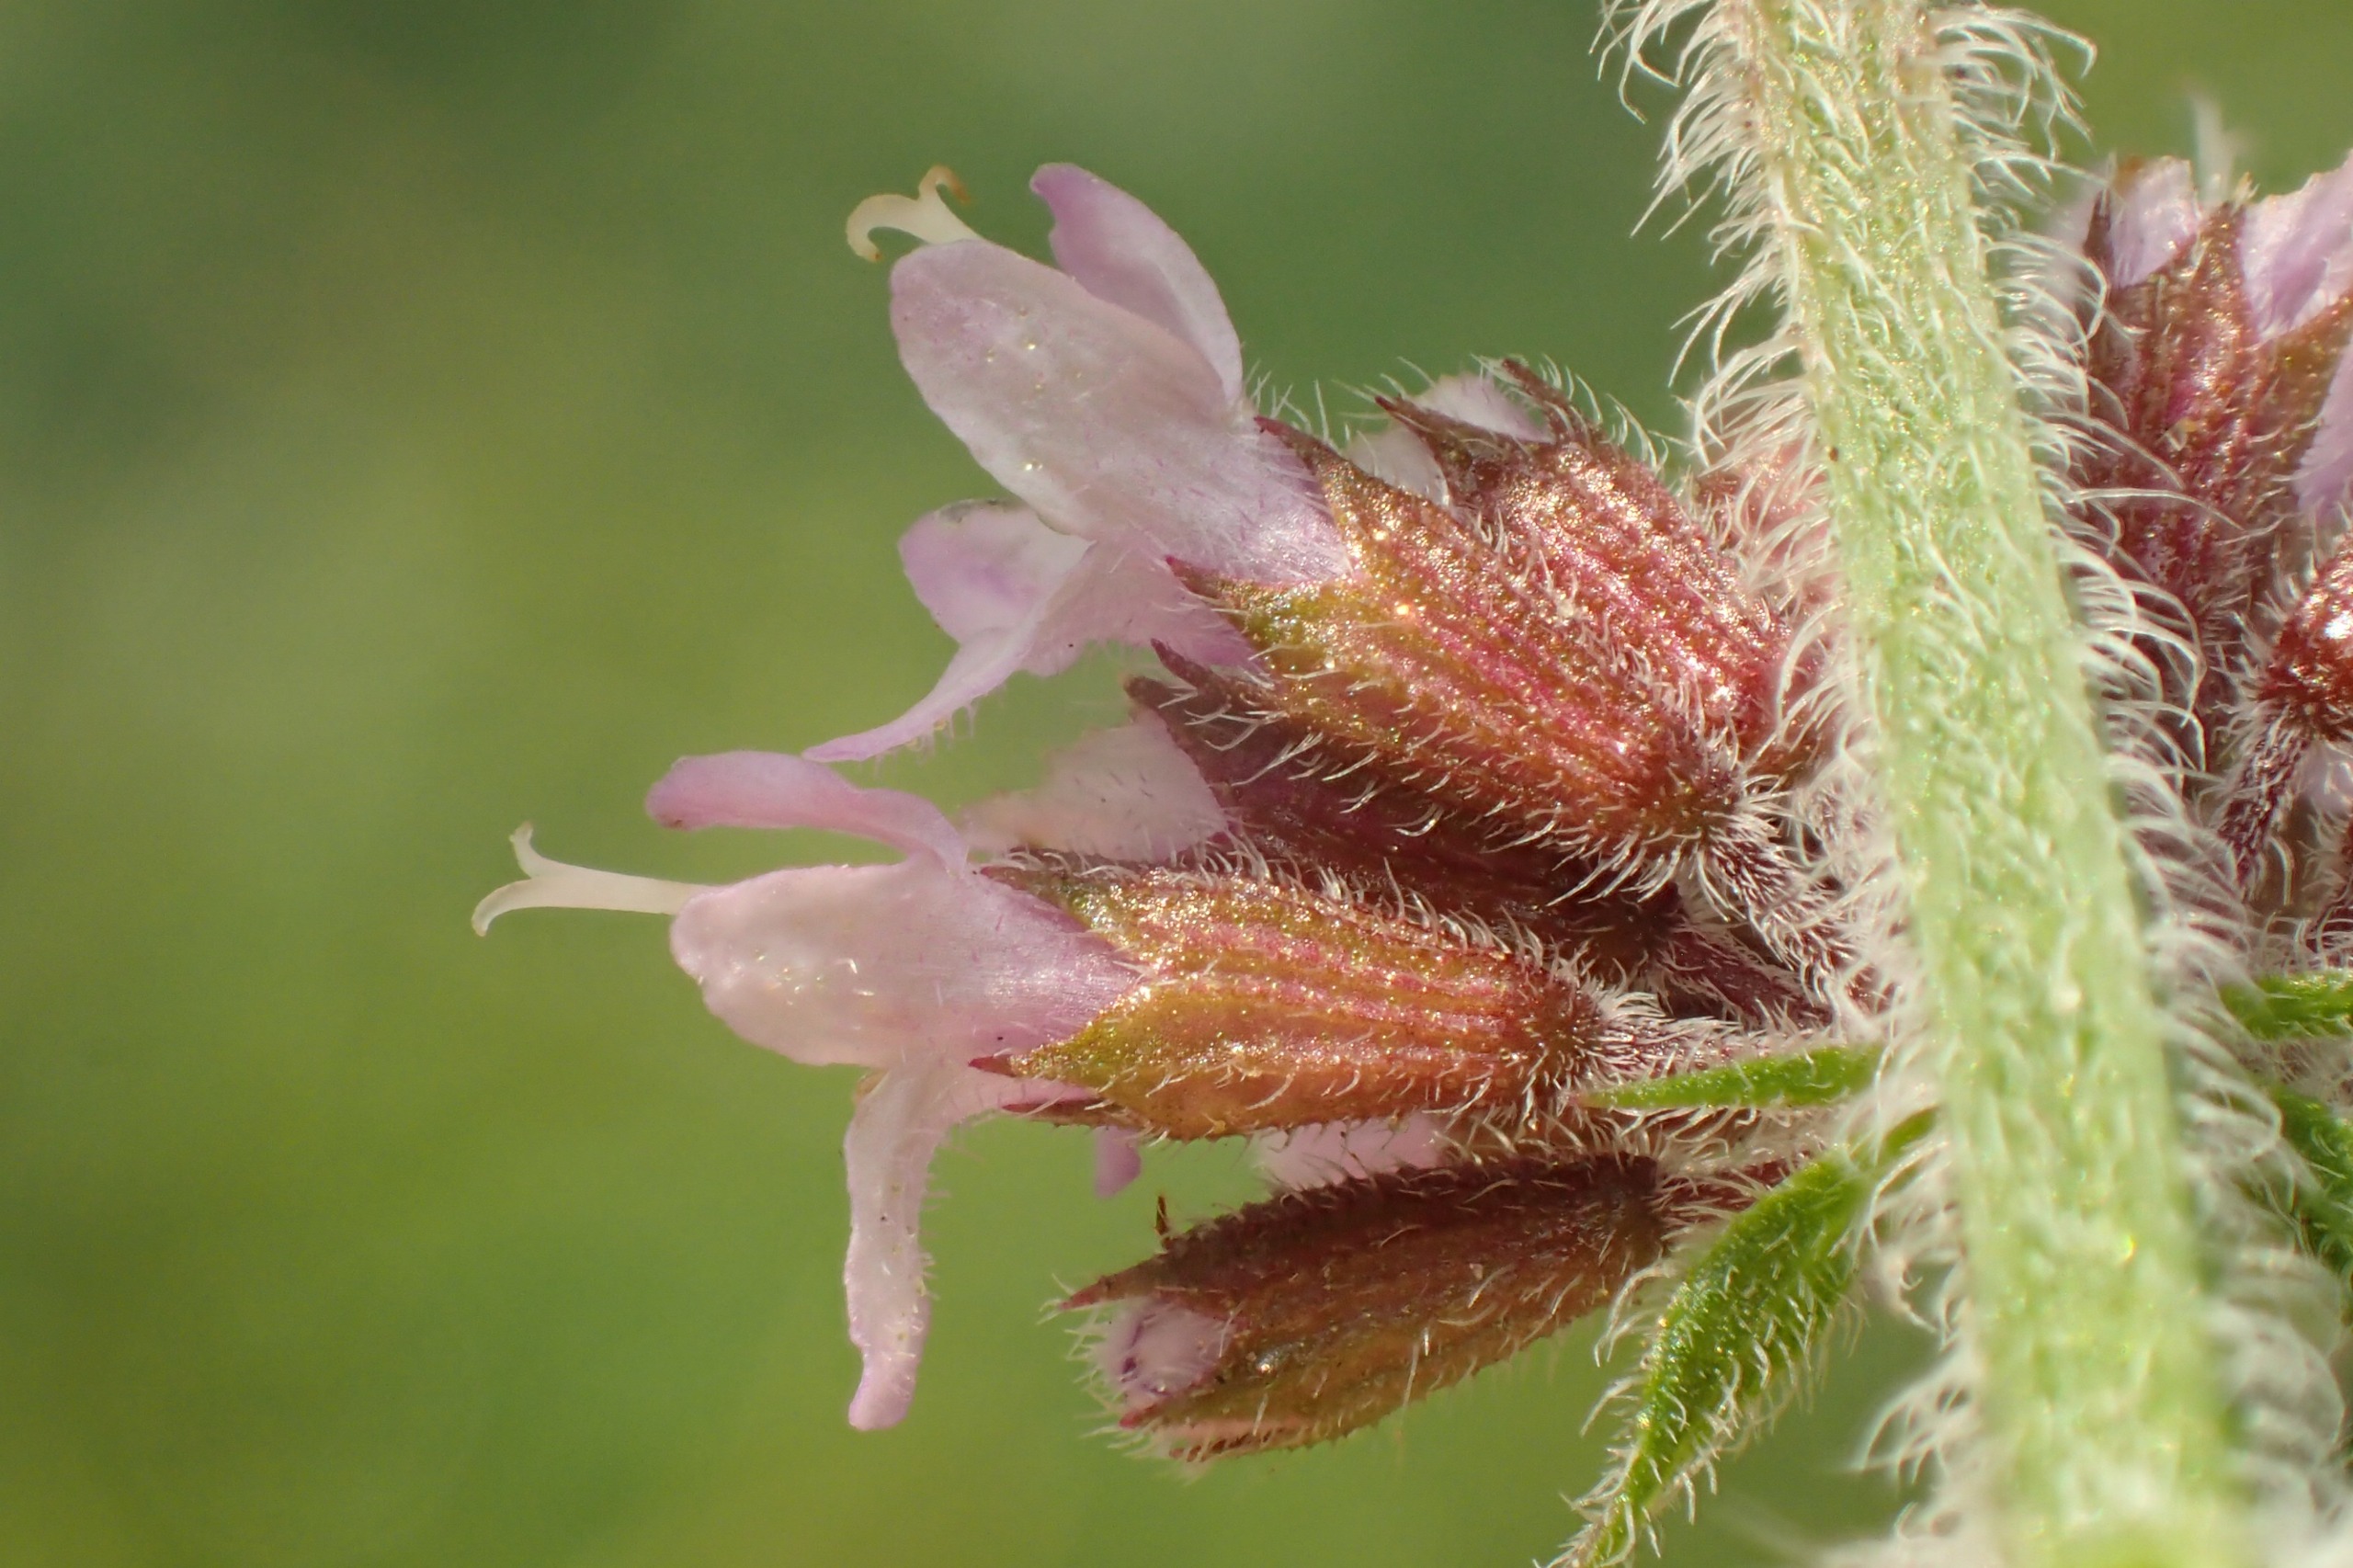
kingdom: Plantae
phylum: Tracheophyta
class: Magnoliopsida
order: Lamiales
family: Lamiaceae
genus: Mentha
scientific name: Mentha aquatica
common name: Vand-mynte
